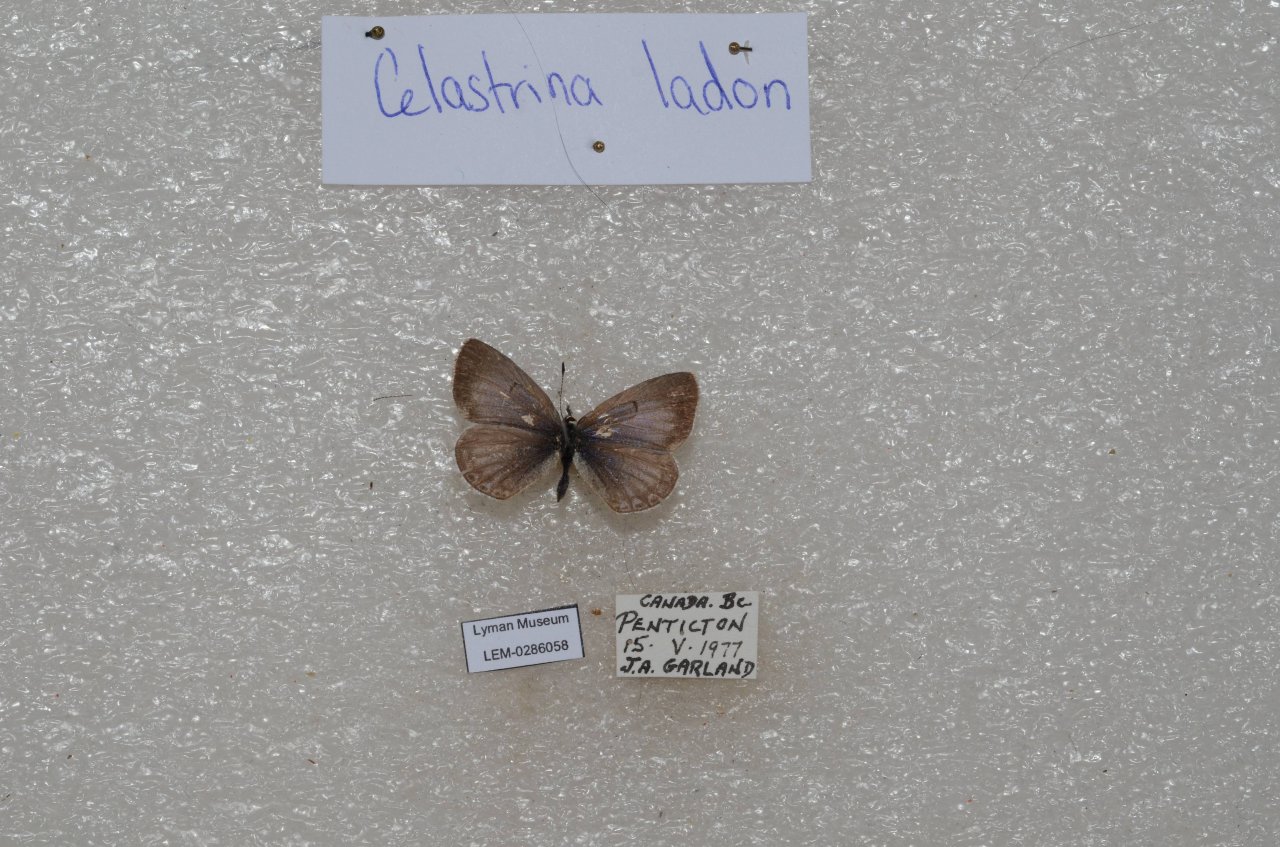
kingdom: Animalia
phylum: Arthropoda
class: Insecta
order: Lepidoptera
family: Lycaenidae
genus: Celastrina
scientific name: Celastrina
